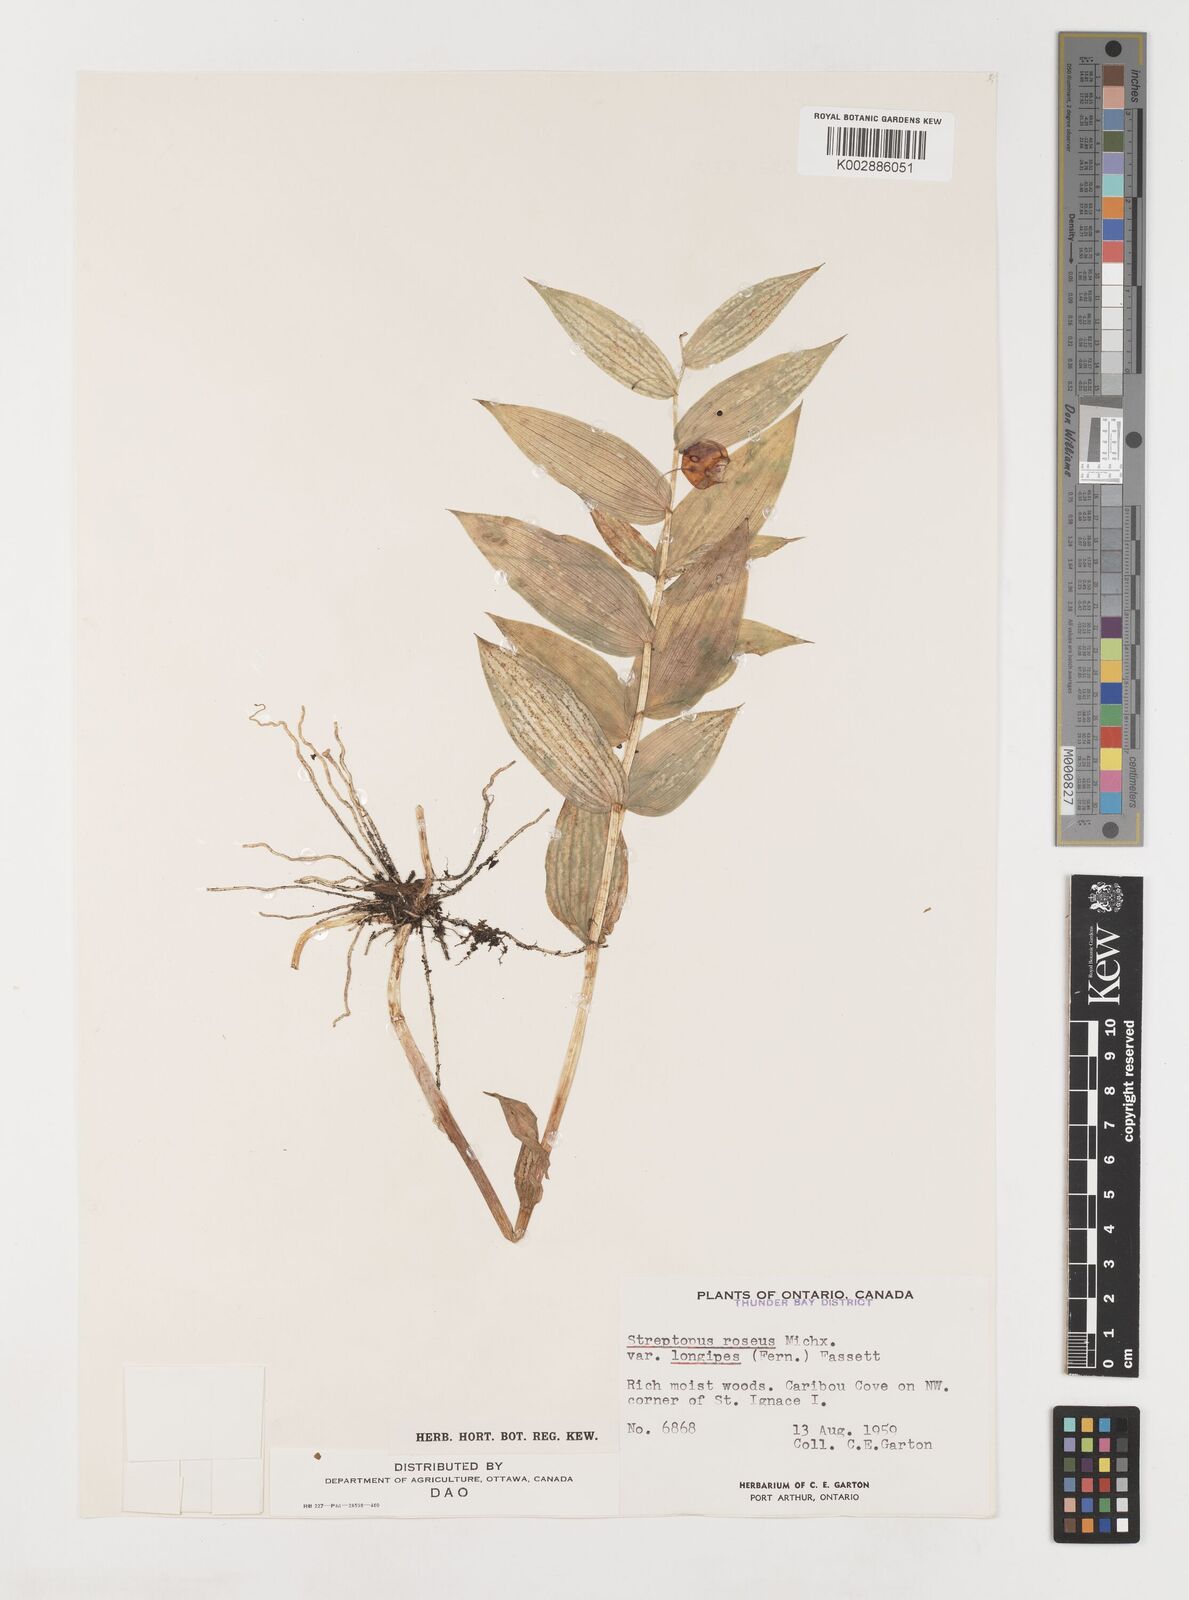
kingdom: Plantae
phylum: Tracheophyta
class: Liliopsida
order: Liliales
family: Liliaceae
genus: Streptopus
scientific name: Streptopus lanceolatus
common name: Rose mandarin
